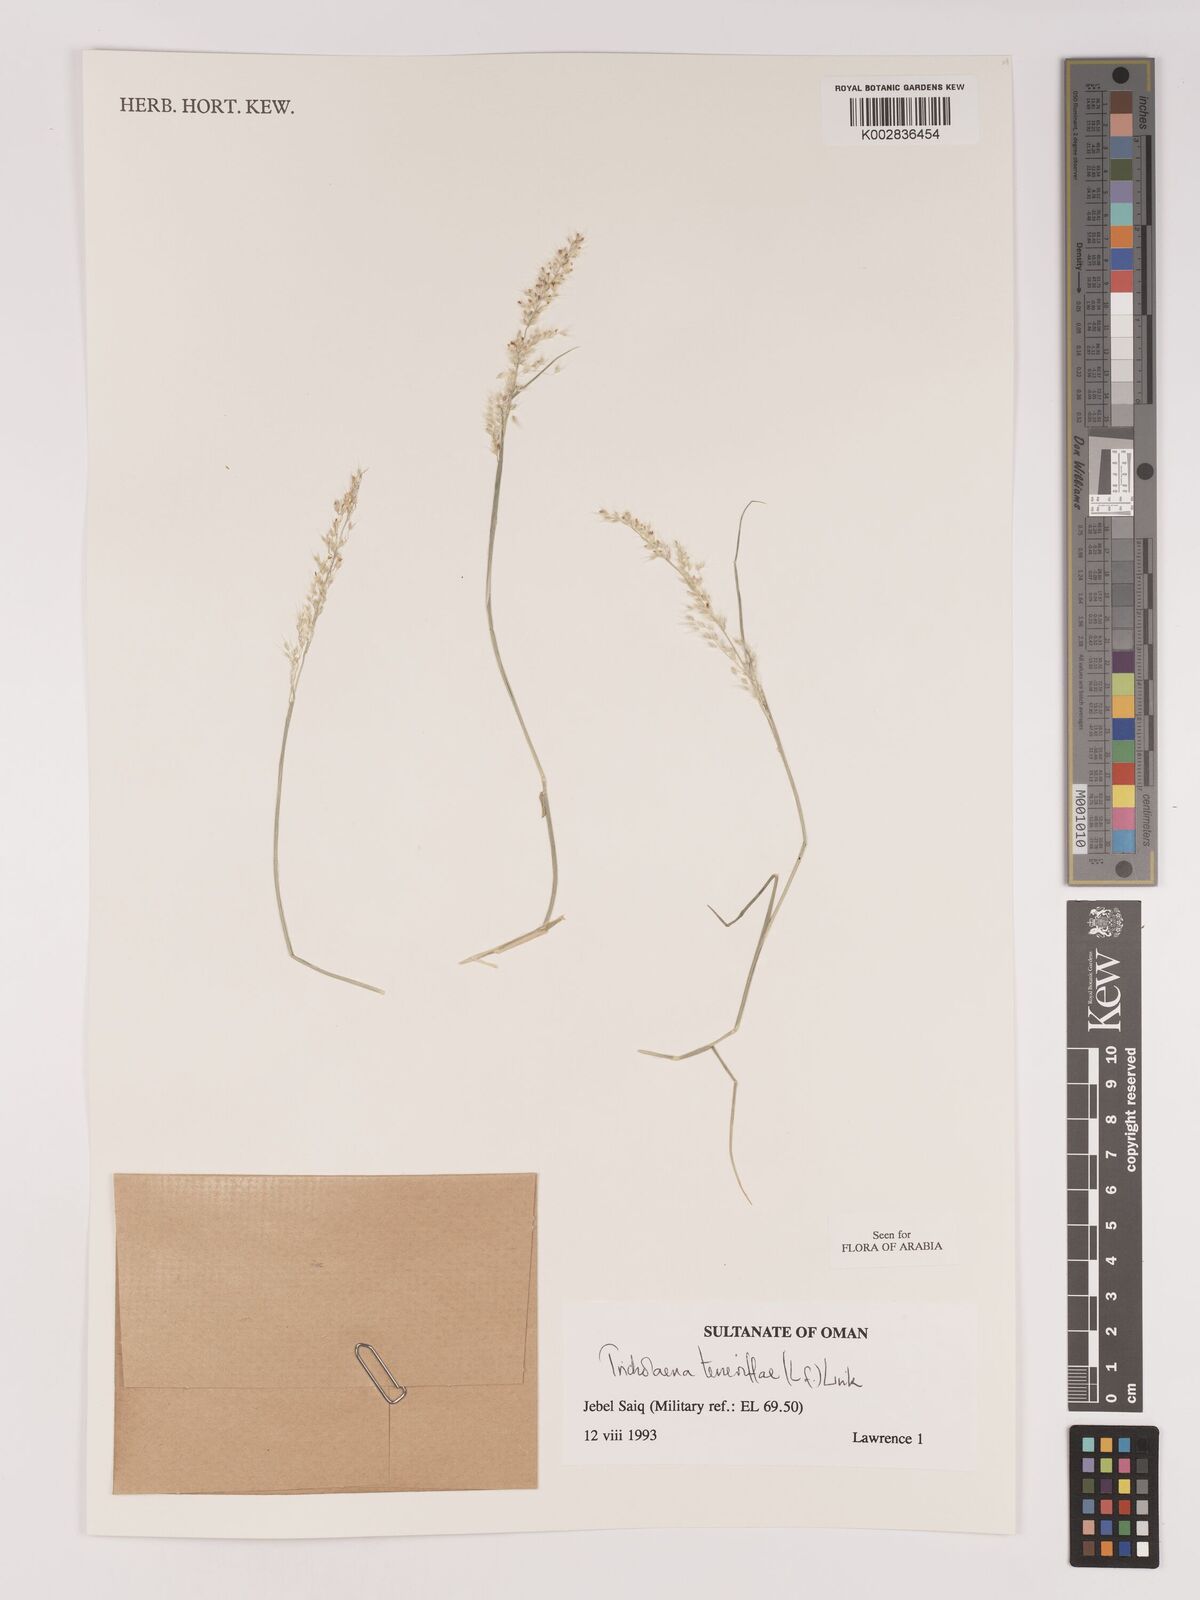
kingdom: Plantae
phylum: Tracheophyta
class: Liliopsida
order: Poales
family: Poaceae
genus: Tricholaena
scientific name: Tricholaena teneriffae
